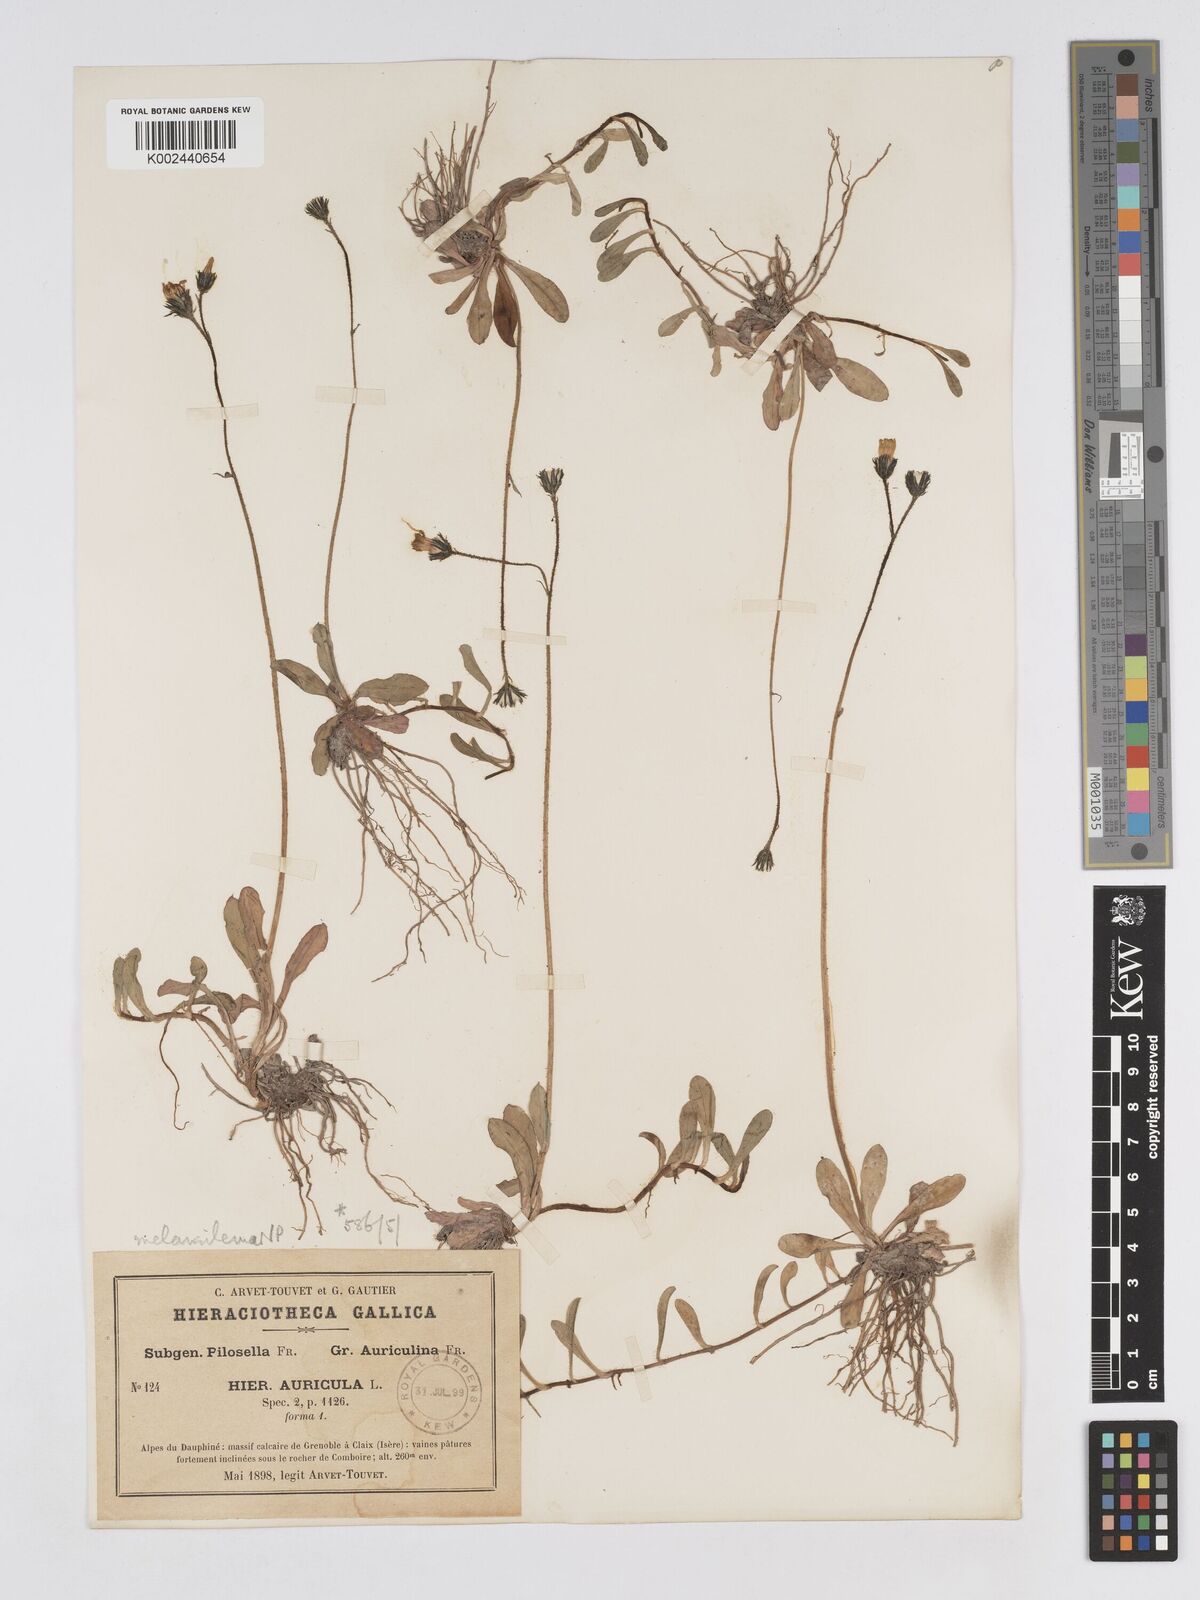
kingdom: Plantae
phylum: Tracheophyta
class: Magnoliopsida
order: Asterales
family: Asteraceae
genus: Pilosella
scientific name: Pilosella lactucella
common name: Glaucous fox-and-cubs
